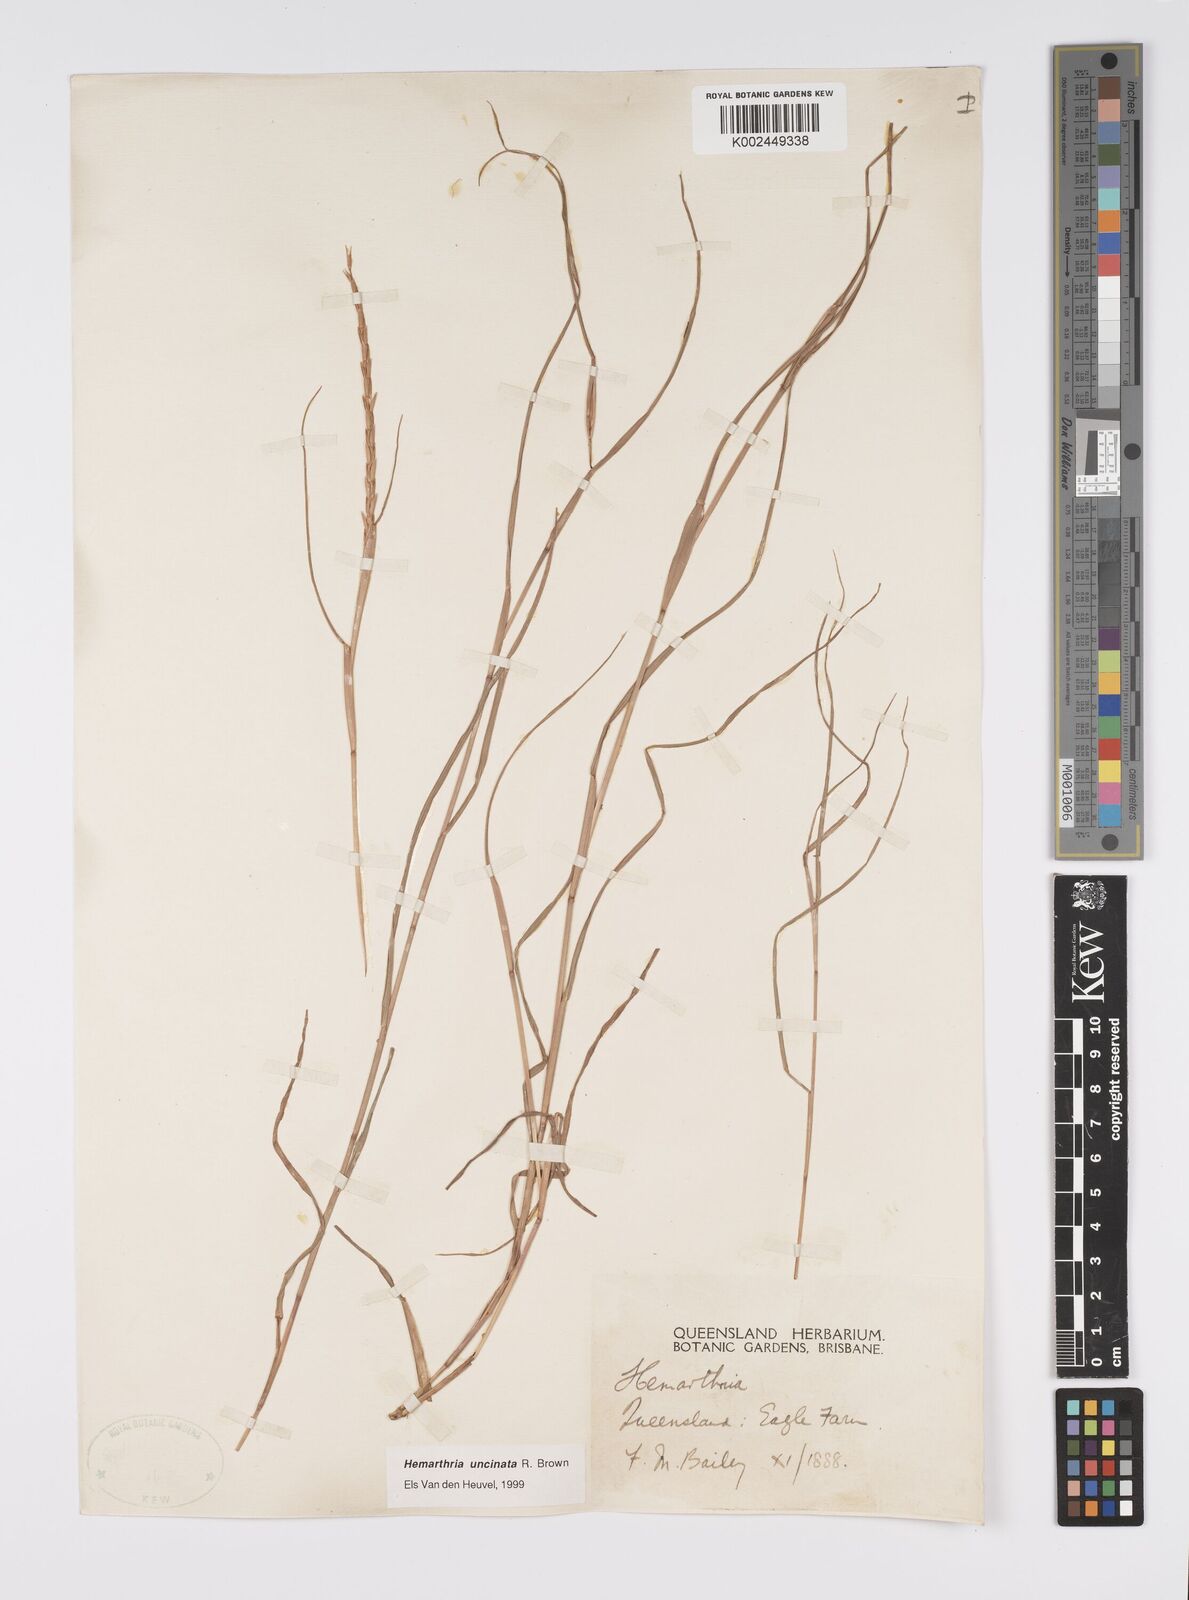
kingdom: Plantae
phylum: Tracheophyta
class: Liliopsida
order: Poales
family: Poaceae
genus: Hemarthria
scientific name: Hemarthria uncinata
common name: Matgrass
